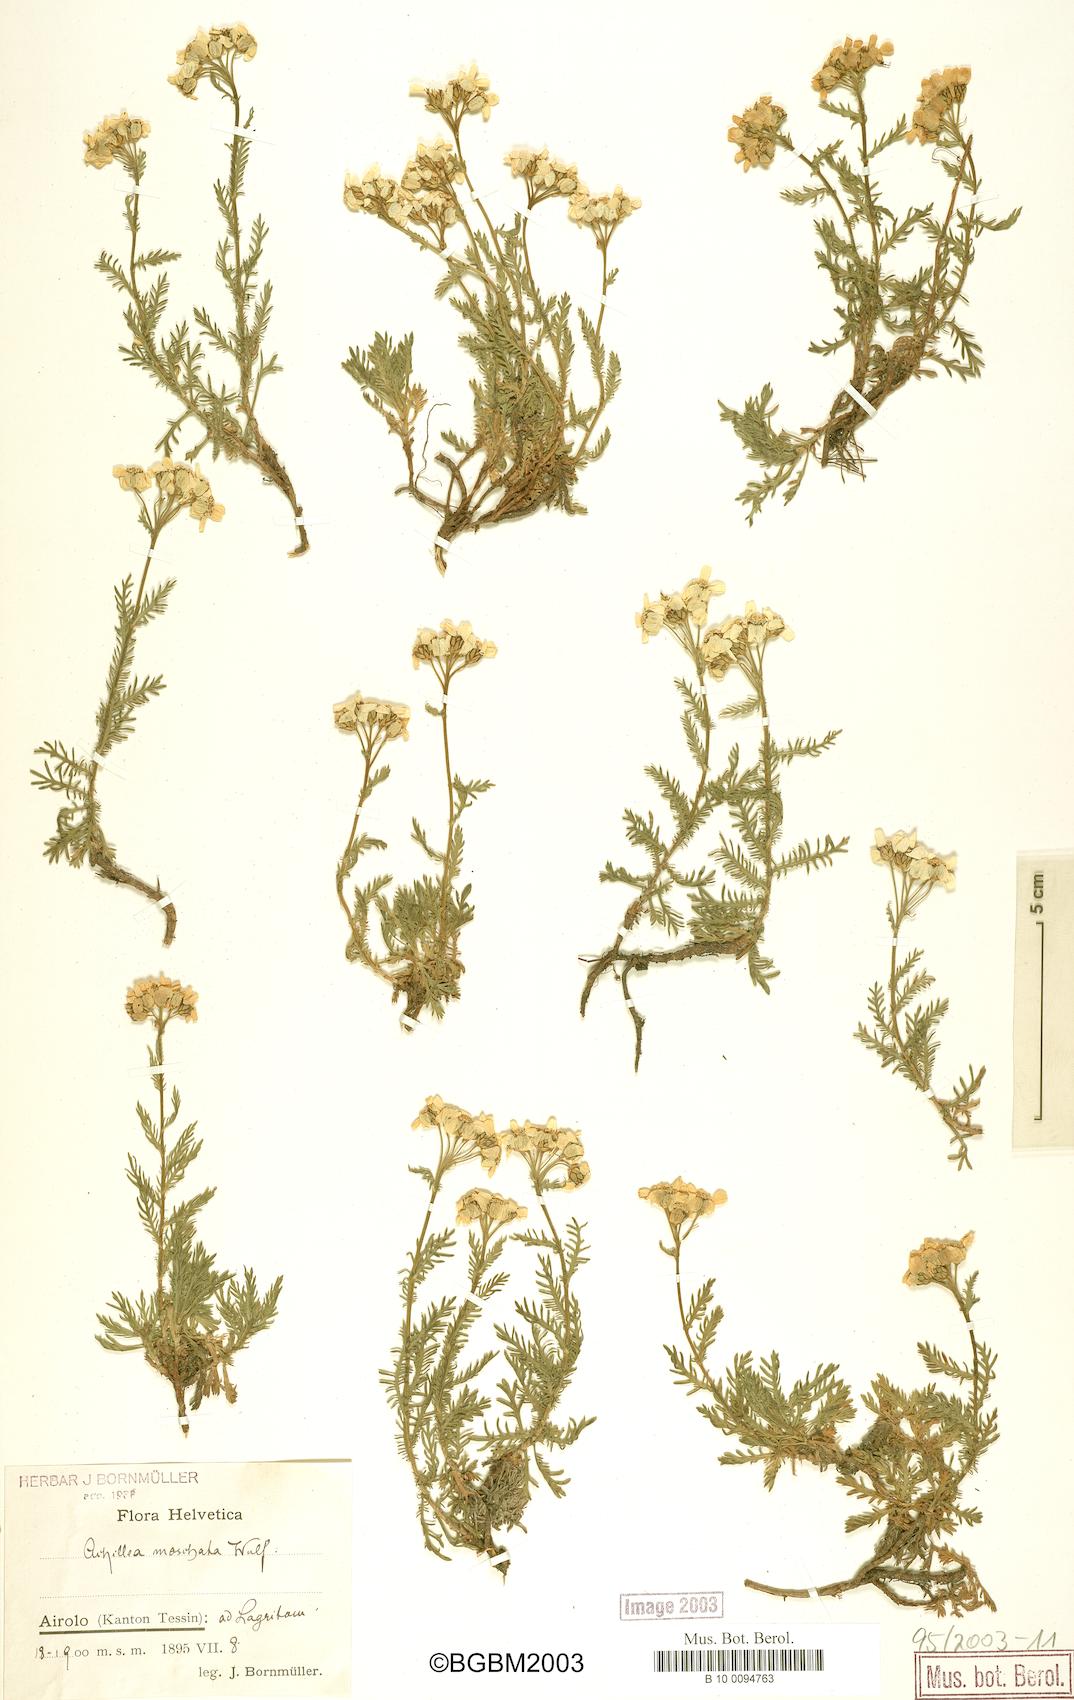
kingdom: Plantae
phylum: Tracheophyta
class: Magnoliopsida
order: Asterales
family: Asteraceae
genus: Achillea
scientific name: Achillea erba-rotta
